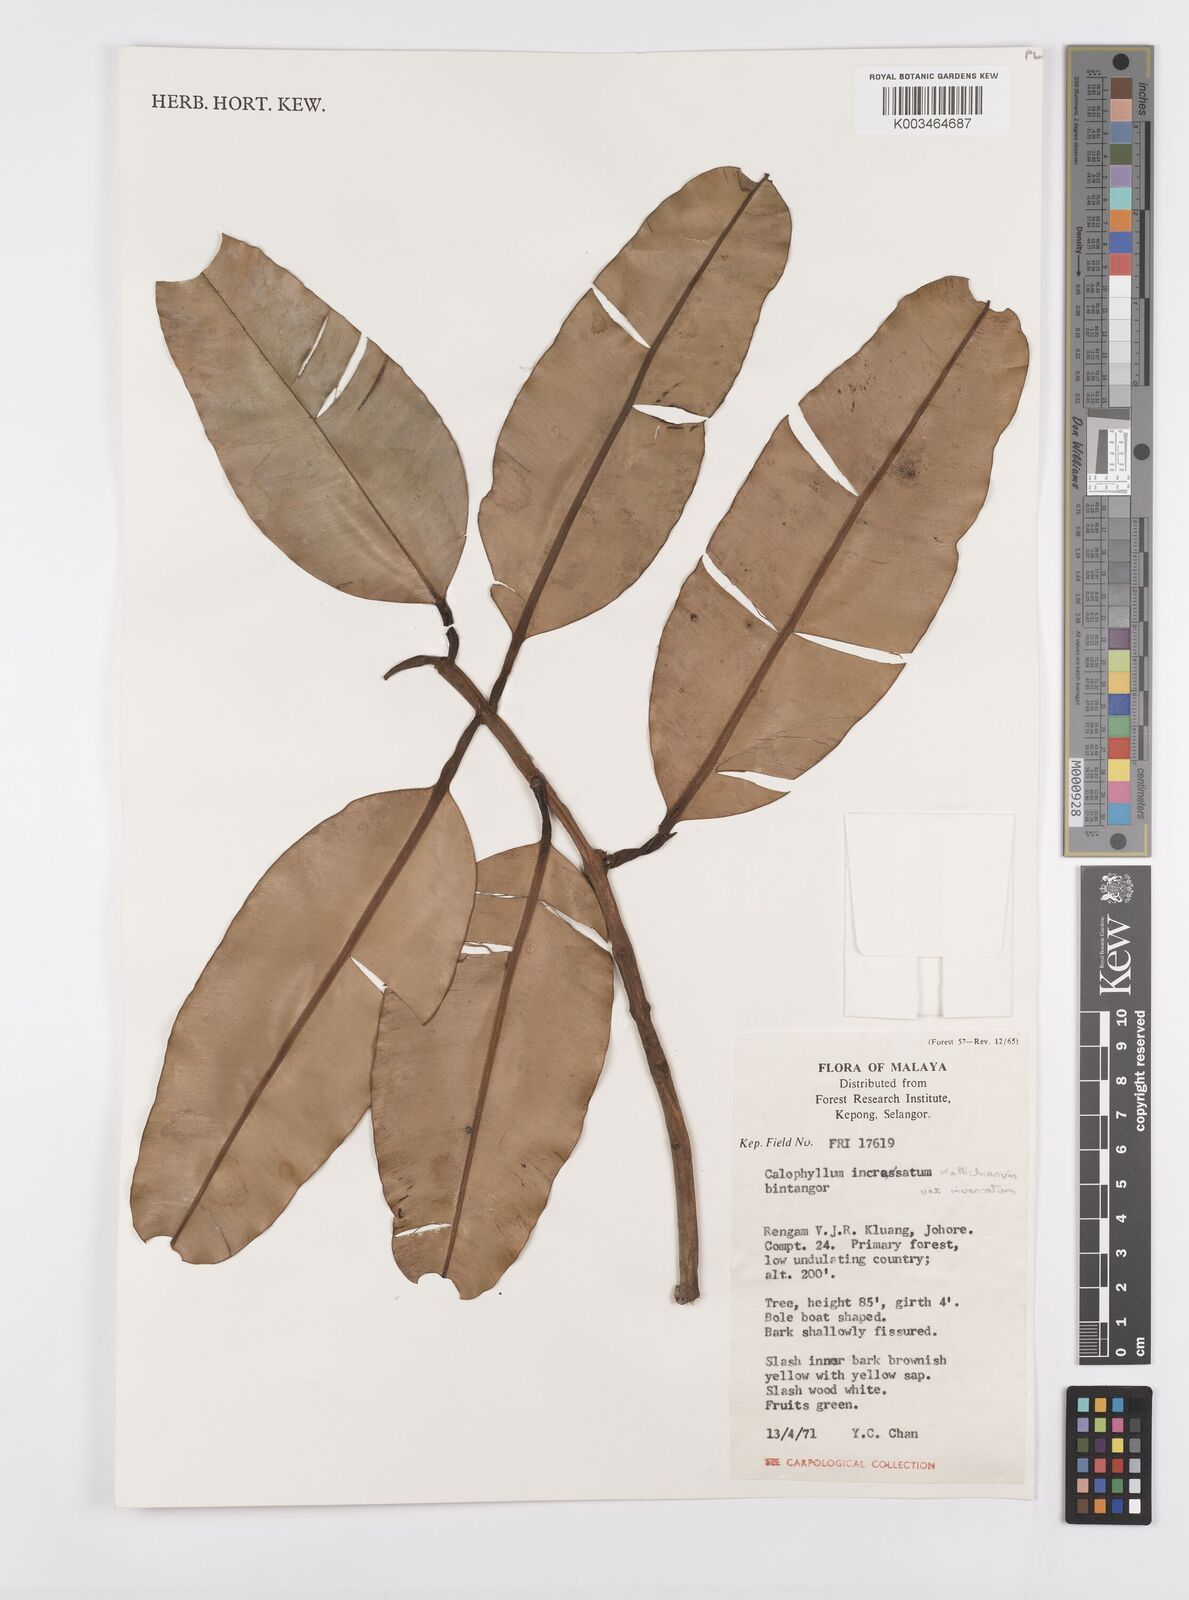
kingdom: Plantae
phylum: Tracheophyta
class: Magnoliopsida
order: Malpighiales
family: Calophyllaceae
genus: Calophyllum
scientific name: Calophyllum wallichiana
